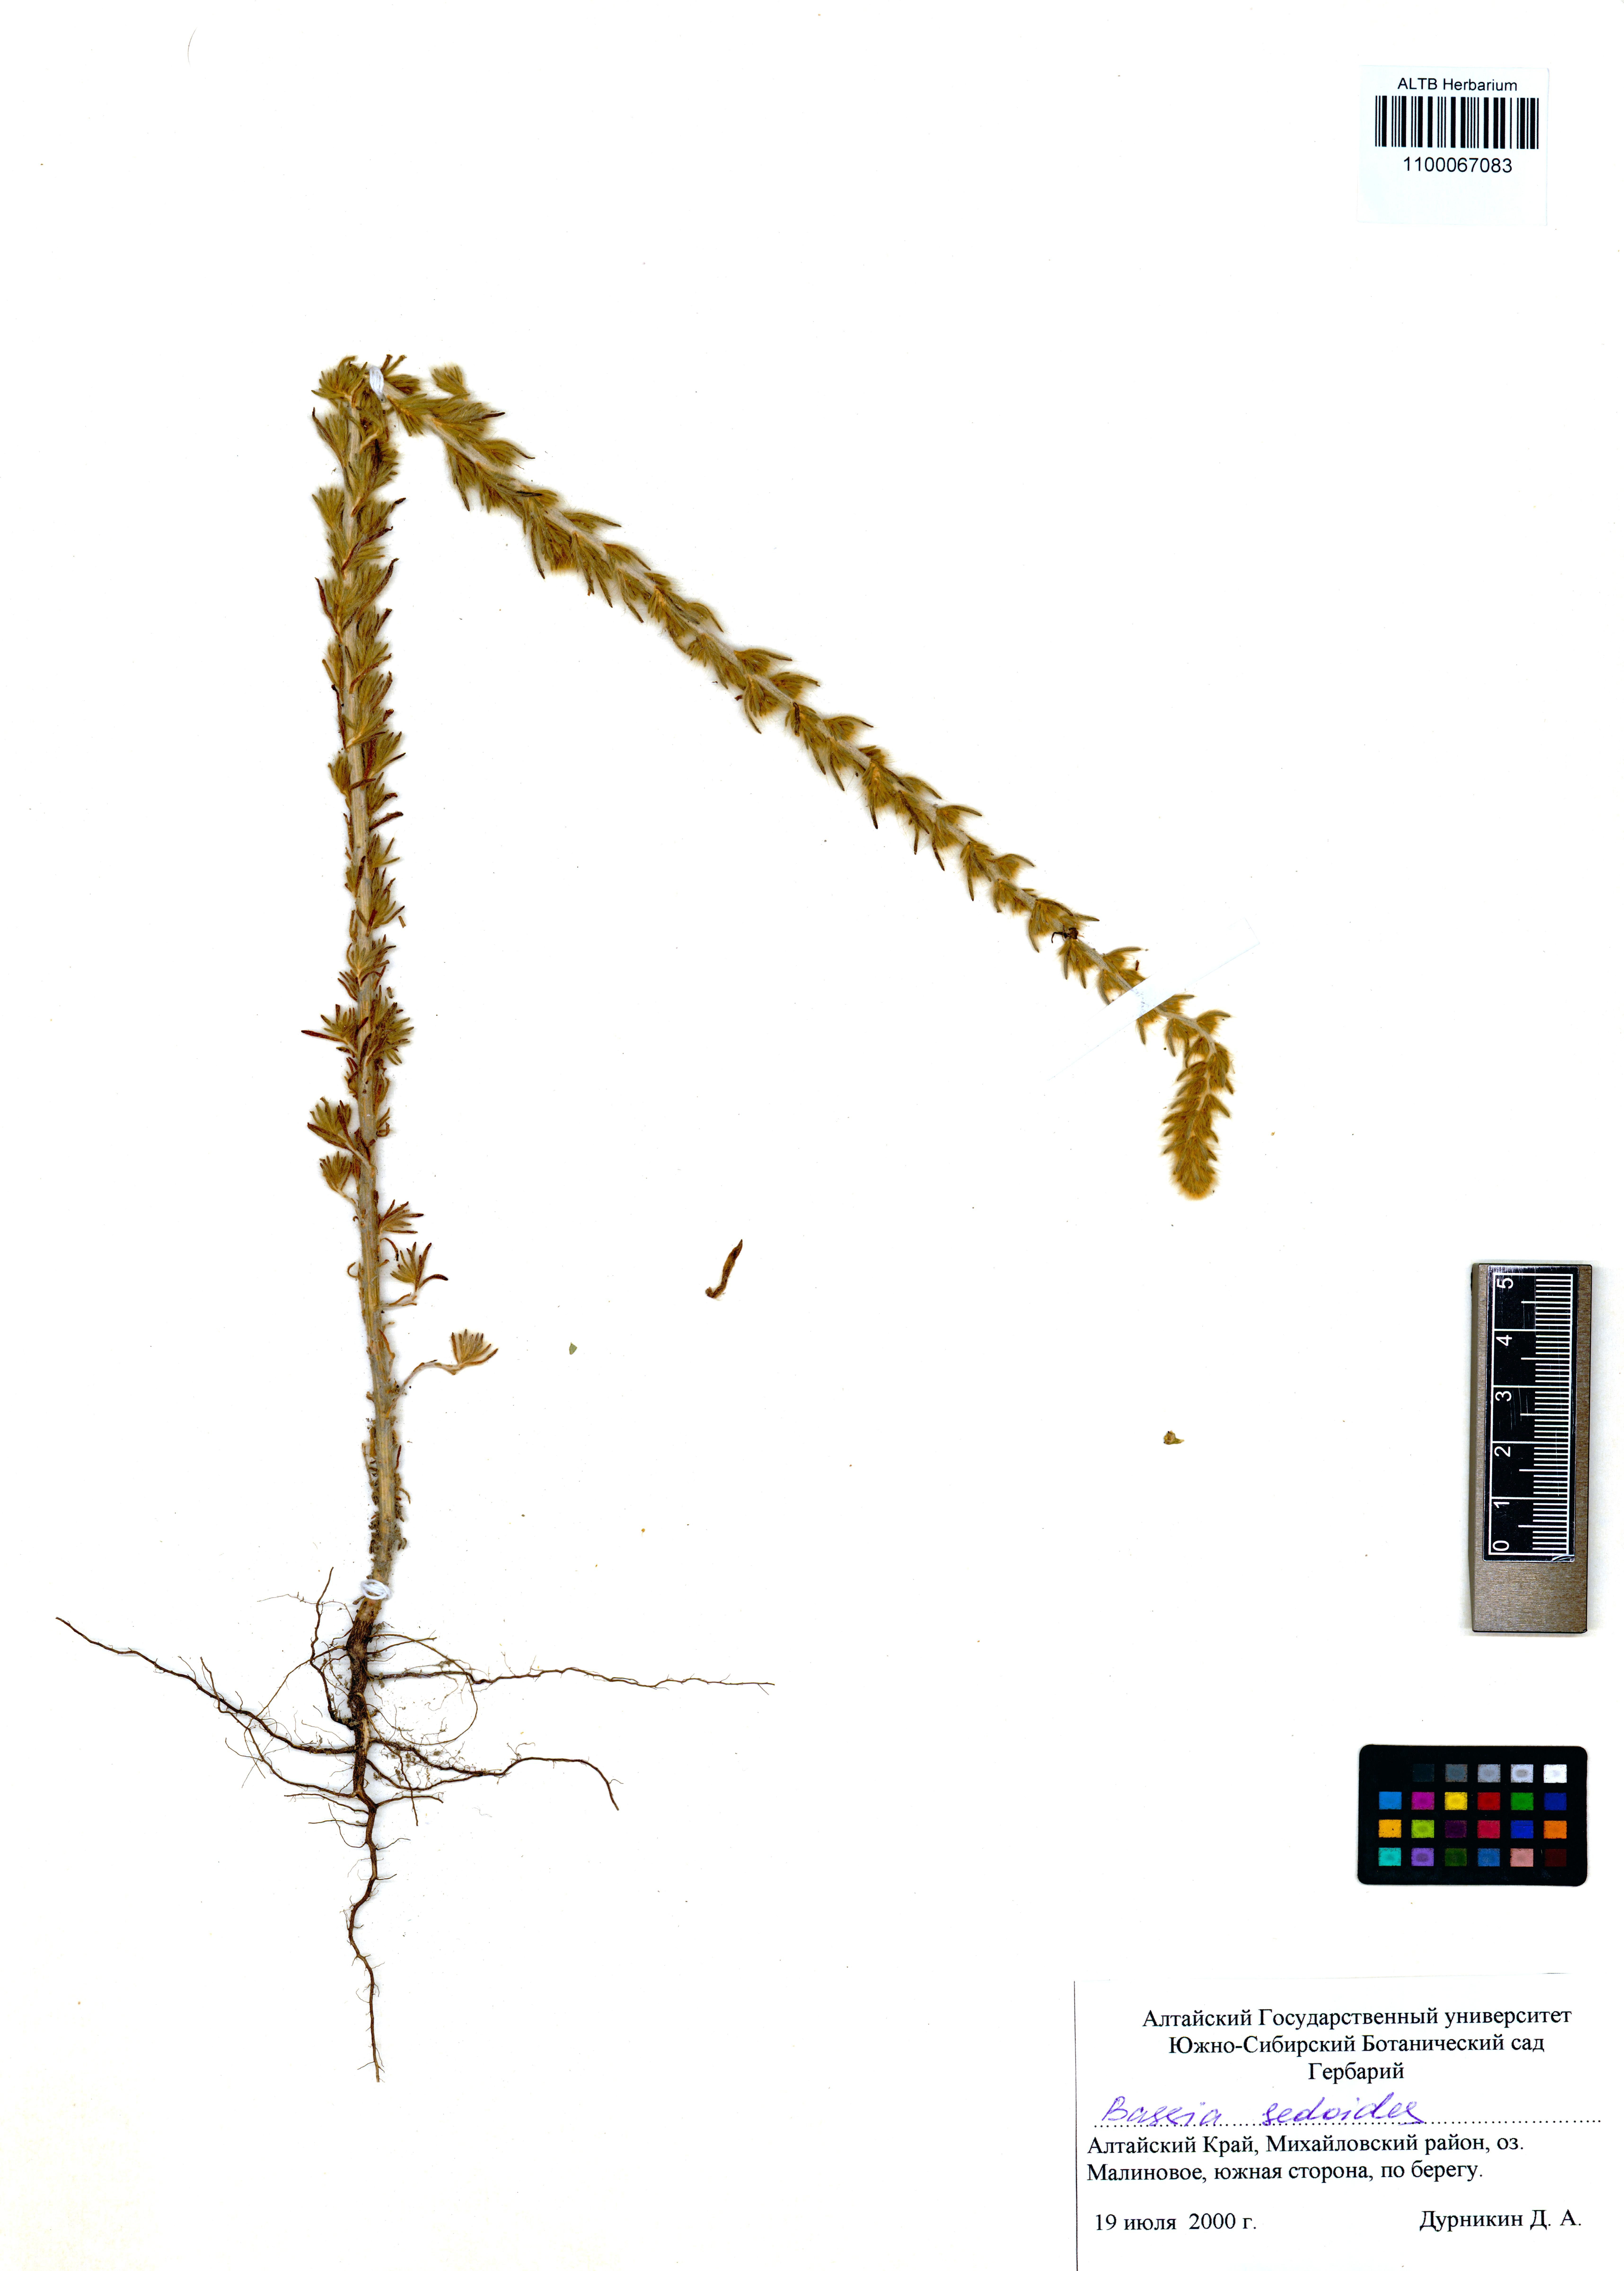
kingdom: Plantae
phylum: Tracheophyta
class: Magnoliopsida
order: Caryophyllales
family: Amaranthaceae
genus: Sedobassia
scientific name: Sedobassia sedoides
